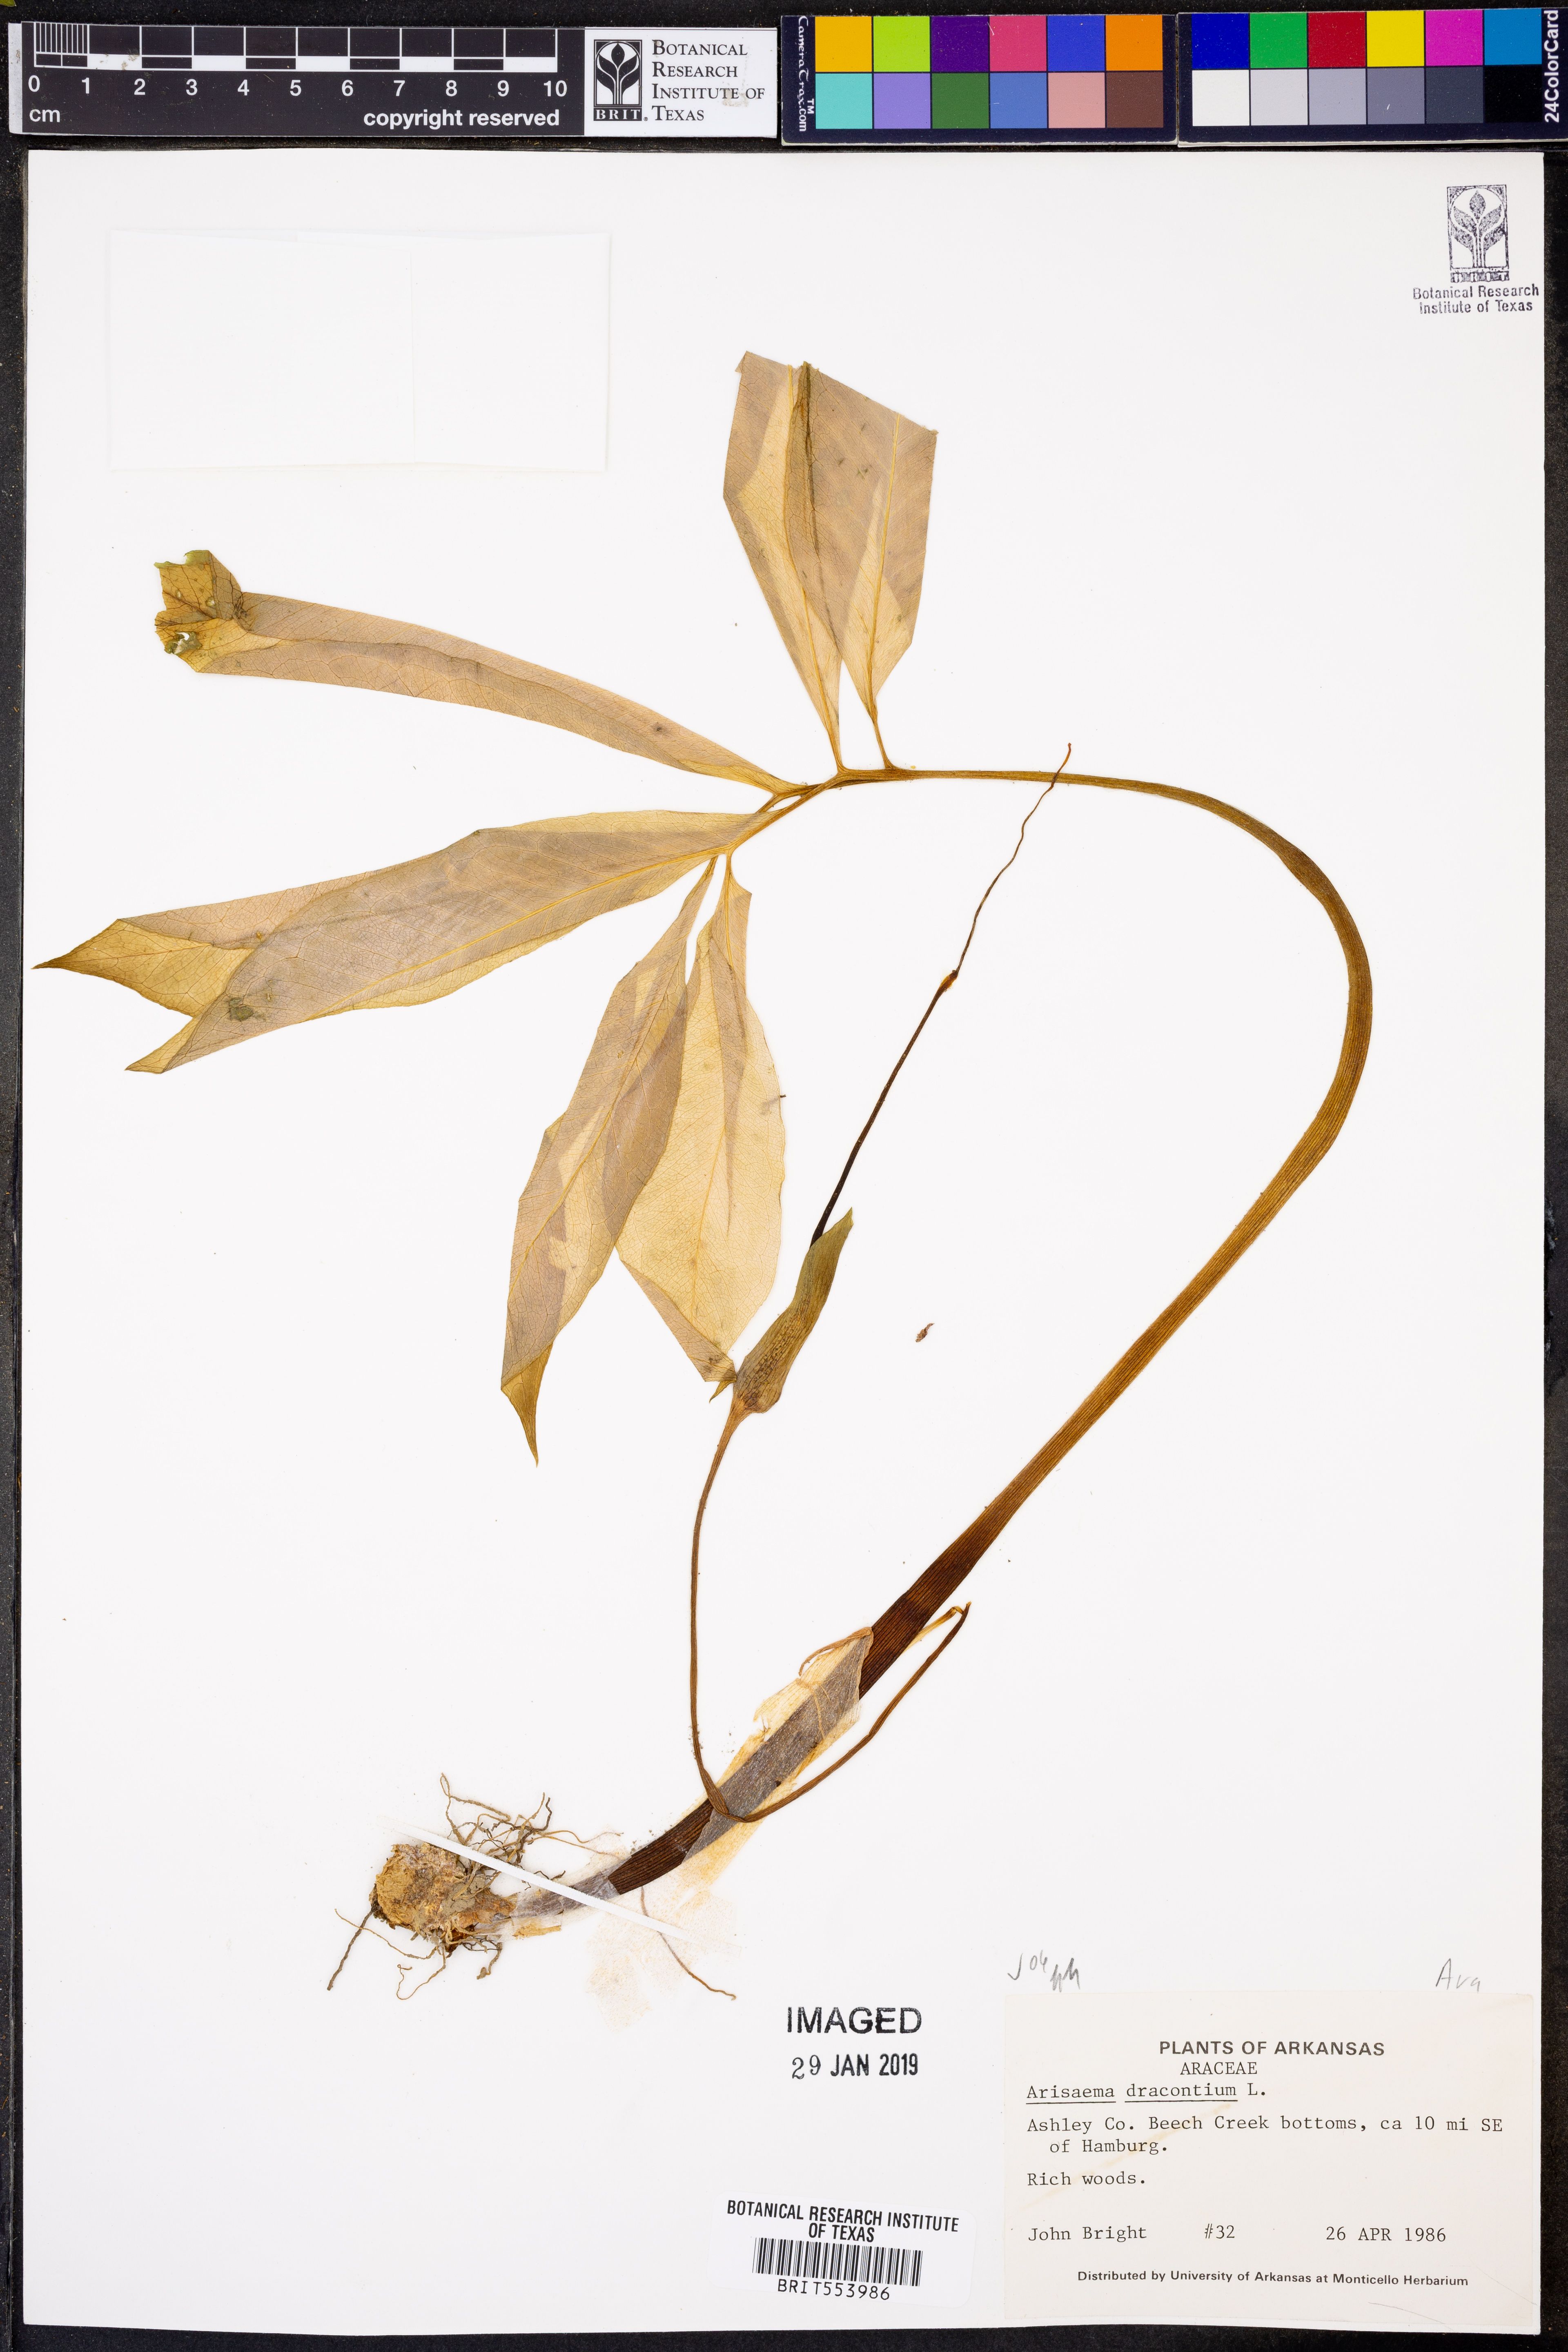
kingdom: Plantae
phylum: Tracheophyta
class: Liliopsida
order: Alismatales
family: Araceae
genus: Arisaema
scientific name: Arisaema dracontium
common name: Dragon-arum
